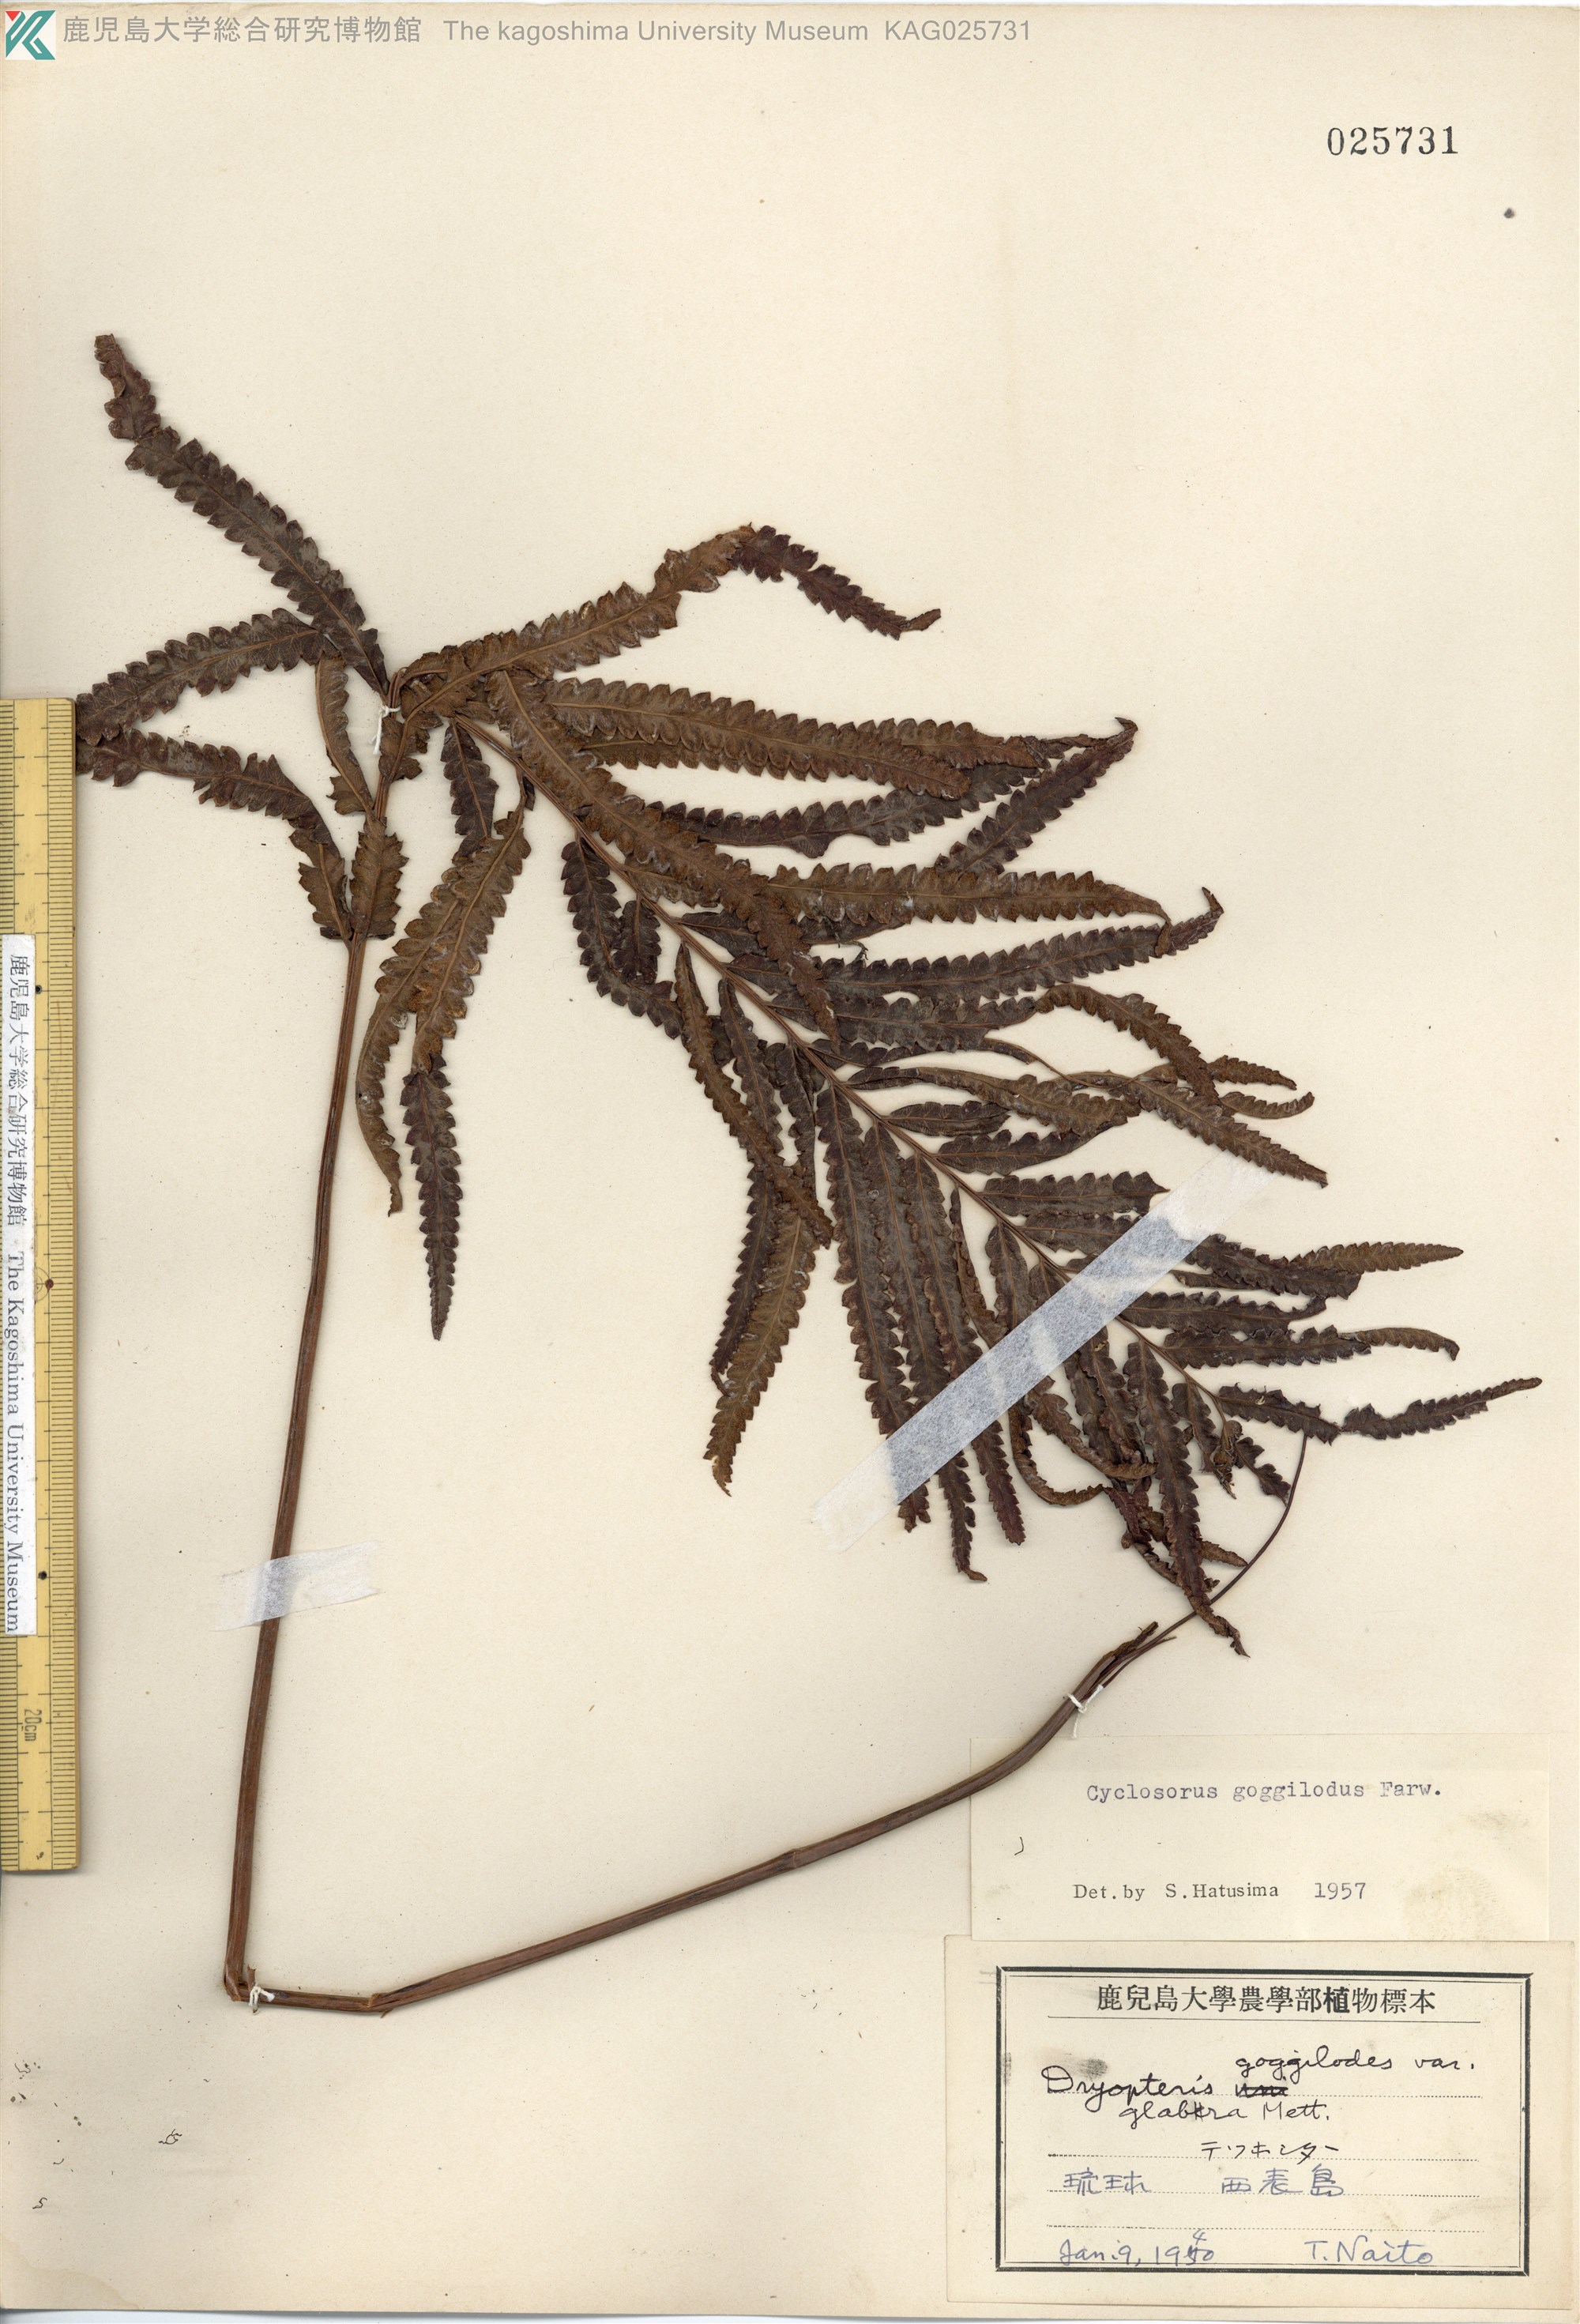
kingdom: Plantae
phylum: Tracheophyta
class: Polypodiopsida
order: Polypodiales
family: Thelypteridaceae
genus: Cyclosorus
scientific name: Cyclosorus interruptus
